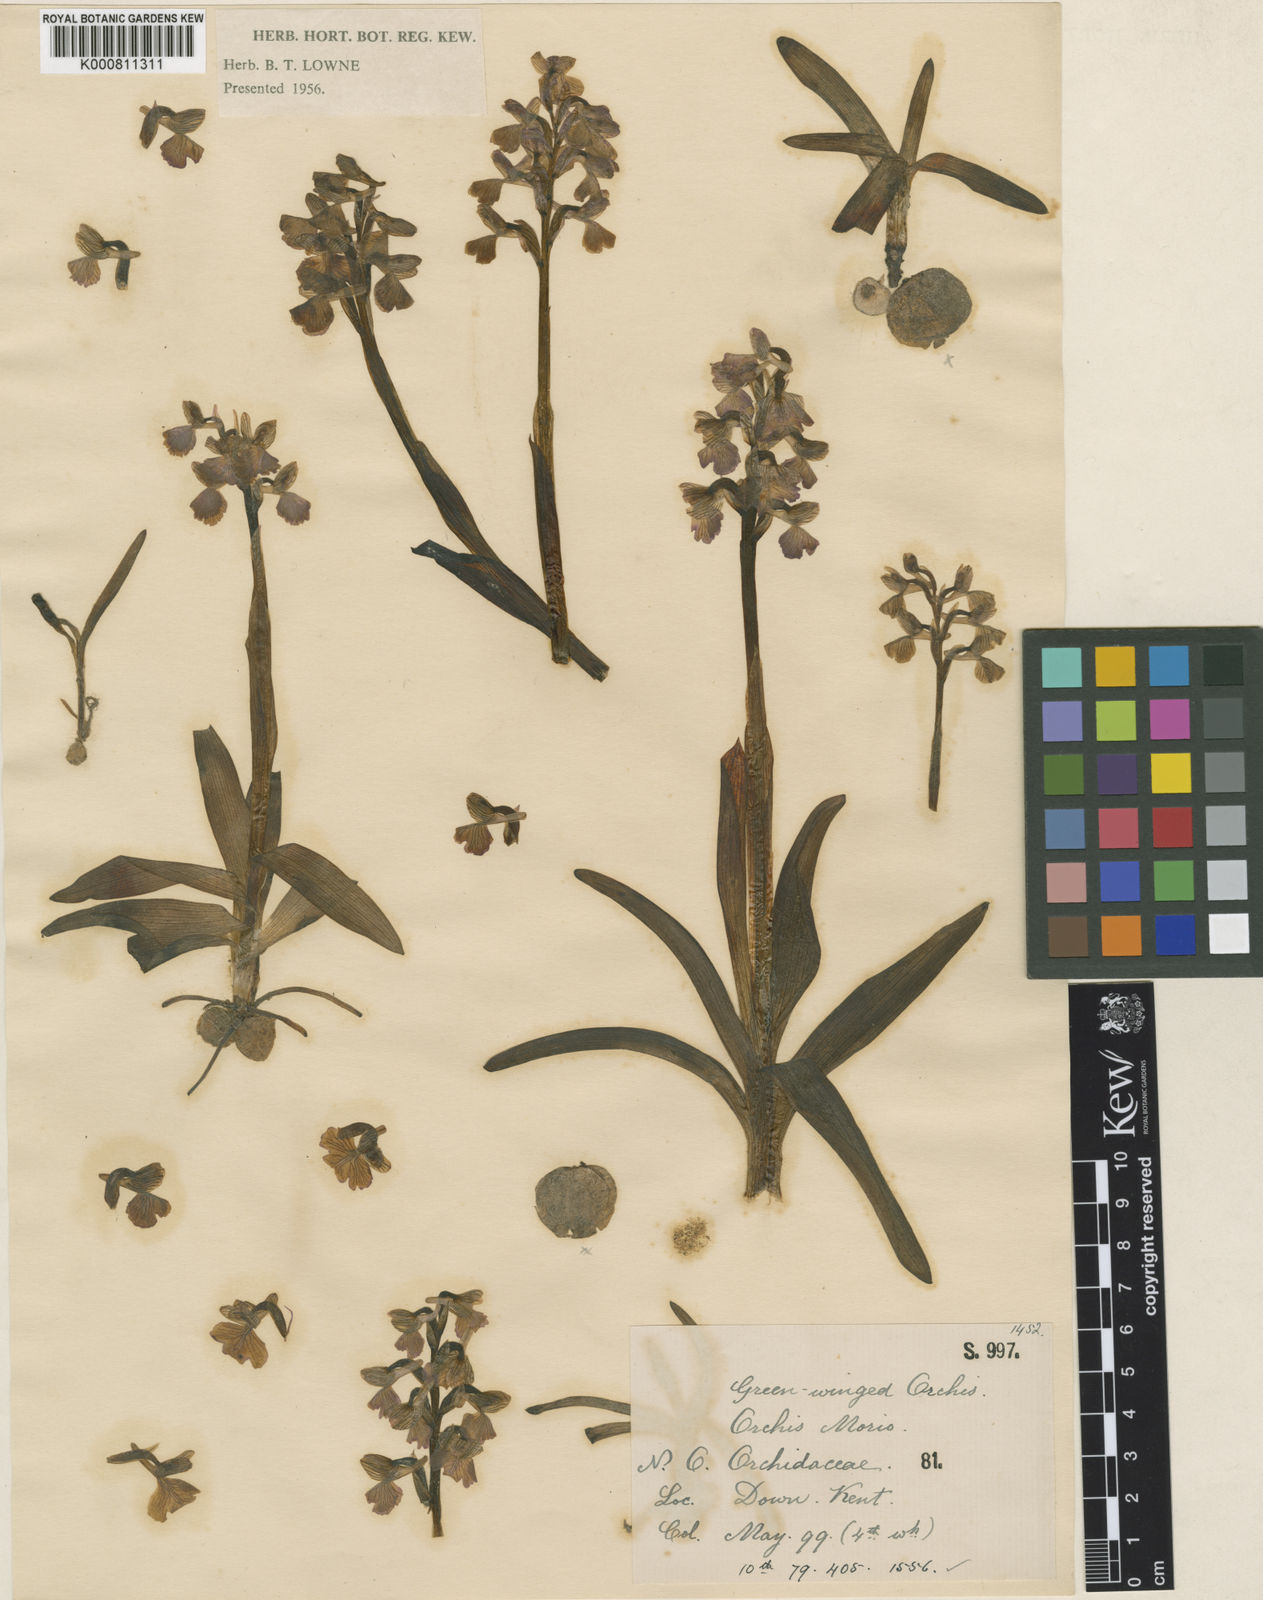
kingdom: Plantae
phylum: Tracheophyta
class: Liliopsida
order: Asparagales
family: Orchidaceae
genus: Anacamptis
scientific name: Anacamptis morio
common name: Green-winged orchid
